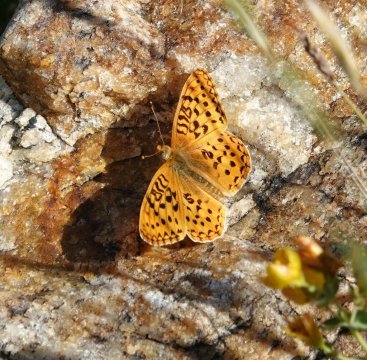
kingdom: Animalia
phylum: Arthropoda
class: Insecta
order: Lepidoptera
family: Nymphalidae
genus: Speyeria
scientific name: Speyeria
